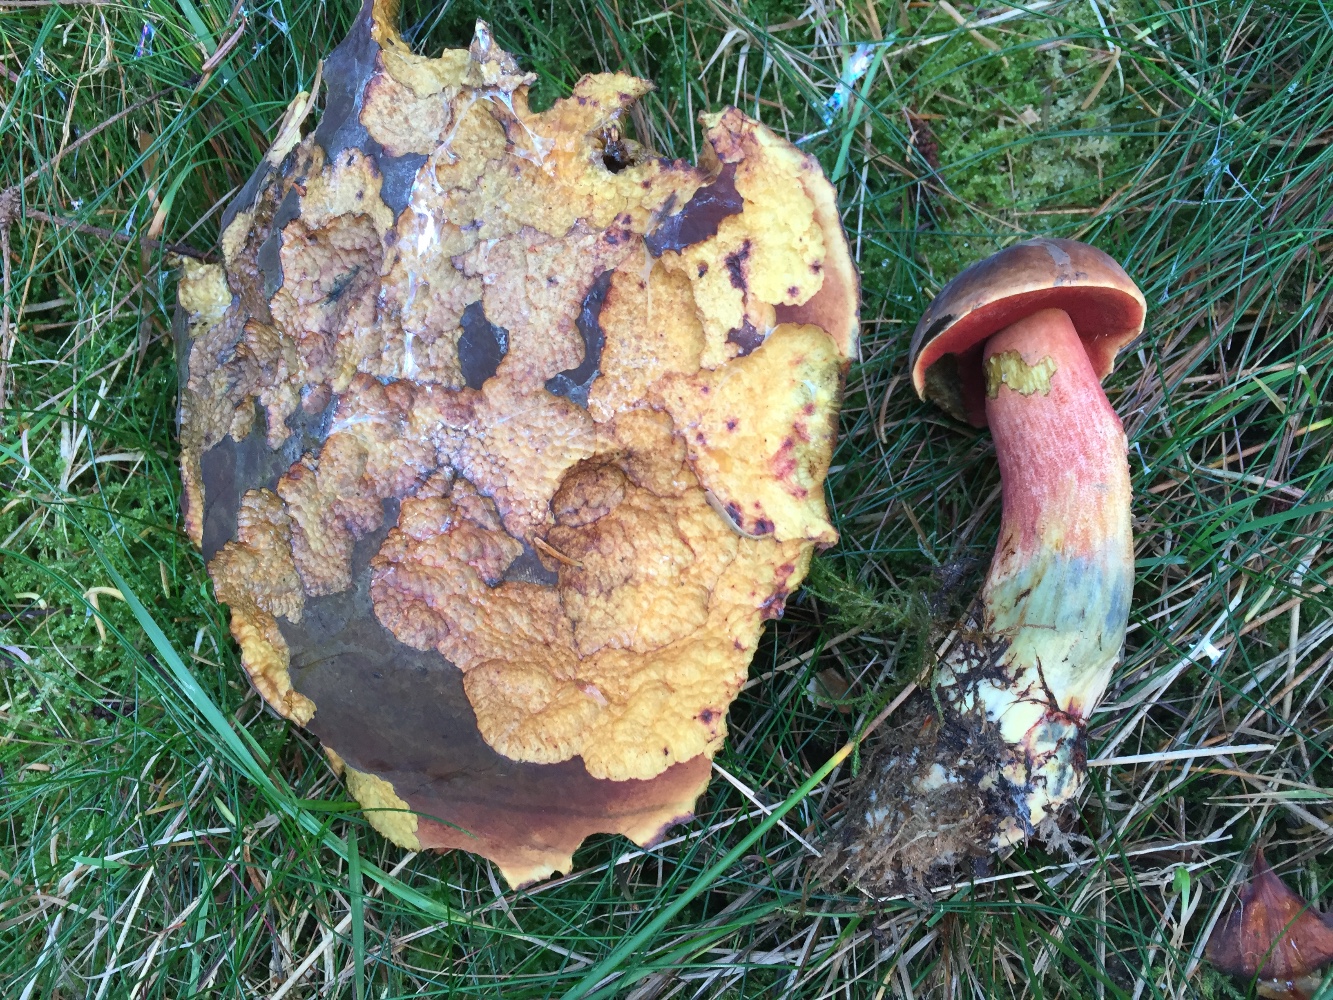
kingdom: Fungi
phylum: Basidiomycota
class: Agaricomycetes
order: Boletales
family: Boletaceae
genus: Neoboletus
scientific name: Neoboletus erythropus
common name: punktstokket indigorørhat
